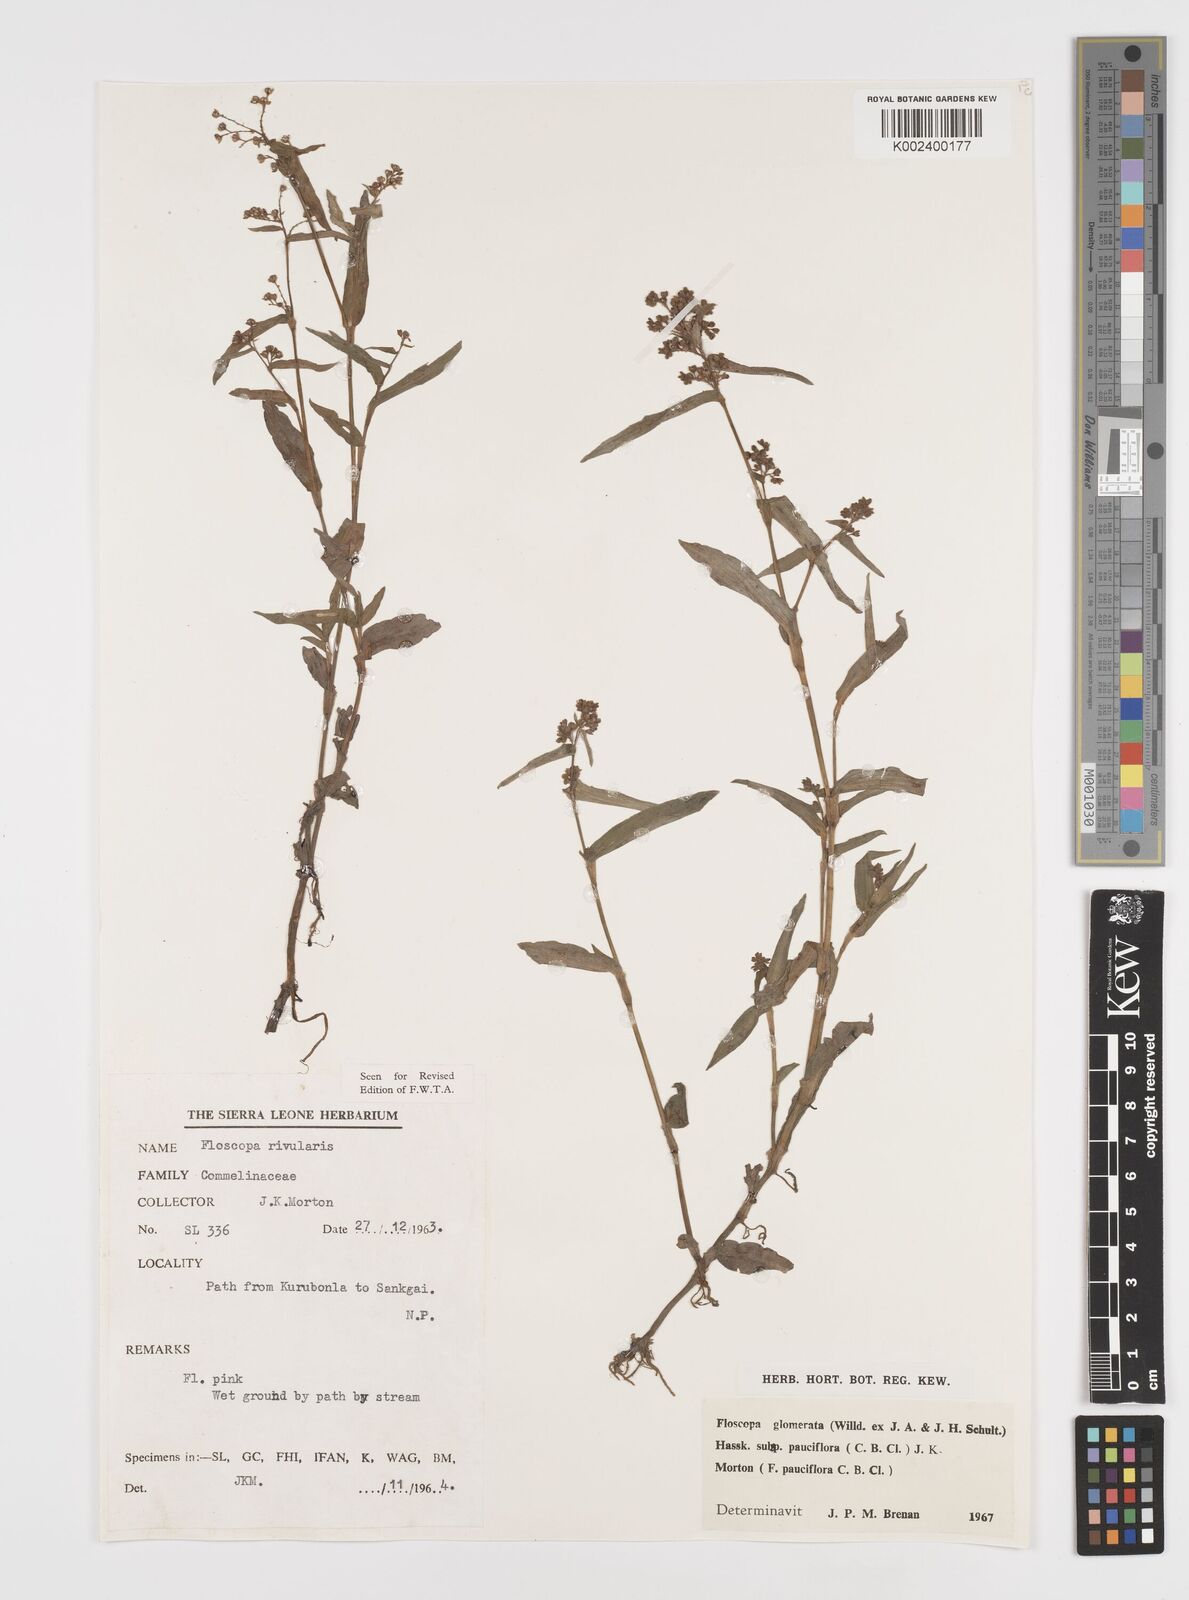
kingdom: Plantae
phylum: Tracheophyta
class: Liliopsida
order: Commelinales
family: Commelinaceae
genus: Floscopa
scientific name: Floscopa glomerata
